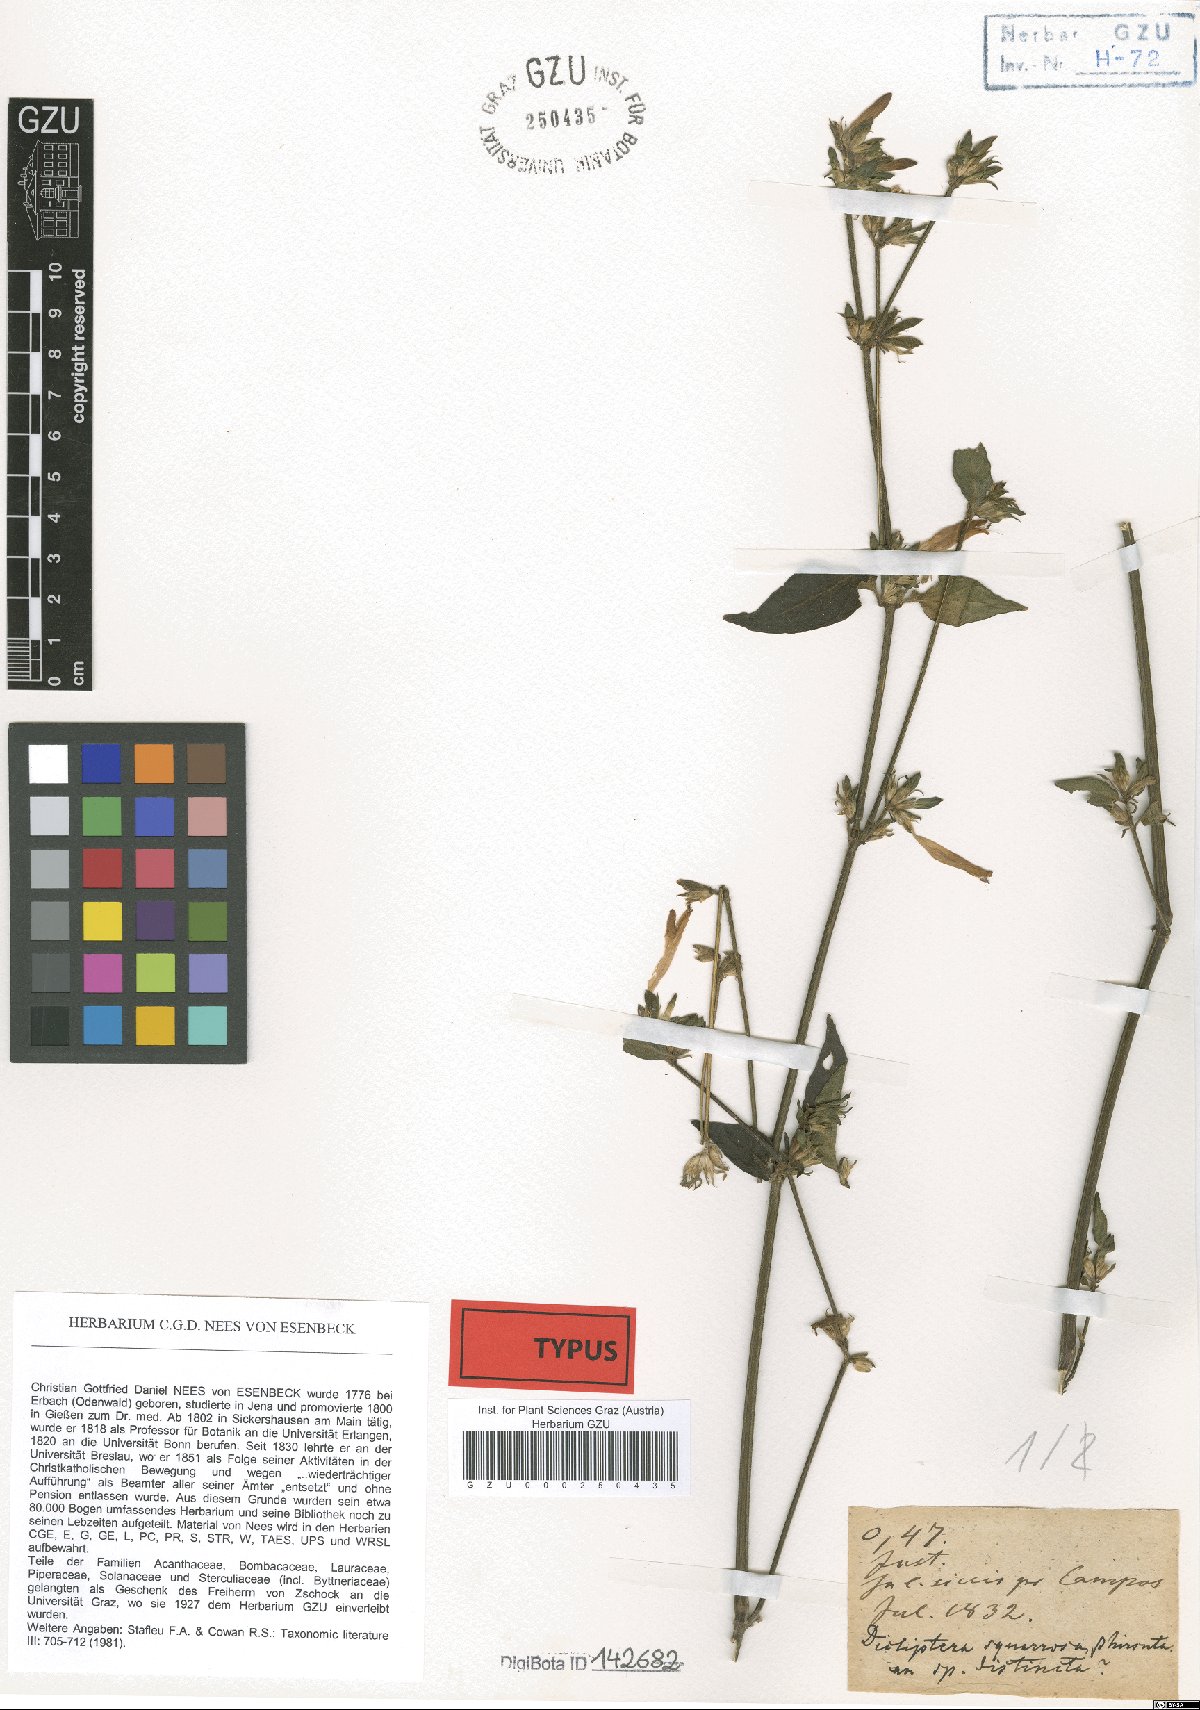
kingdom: Plantae
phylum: Tracheophyta
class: Magnoliopsida
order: Lamiales
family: Acanthaceae
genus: Dicliptera
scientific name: Dicliptera squarrosa
